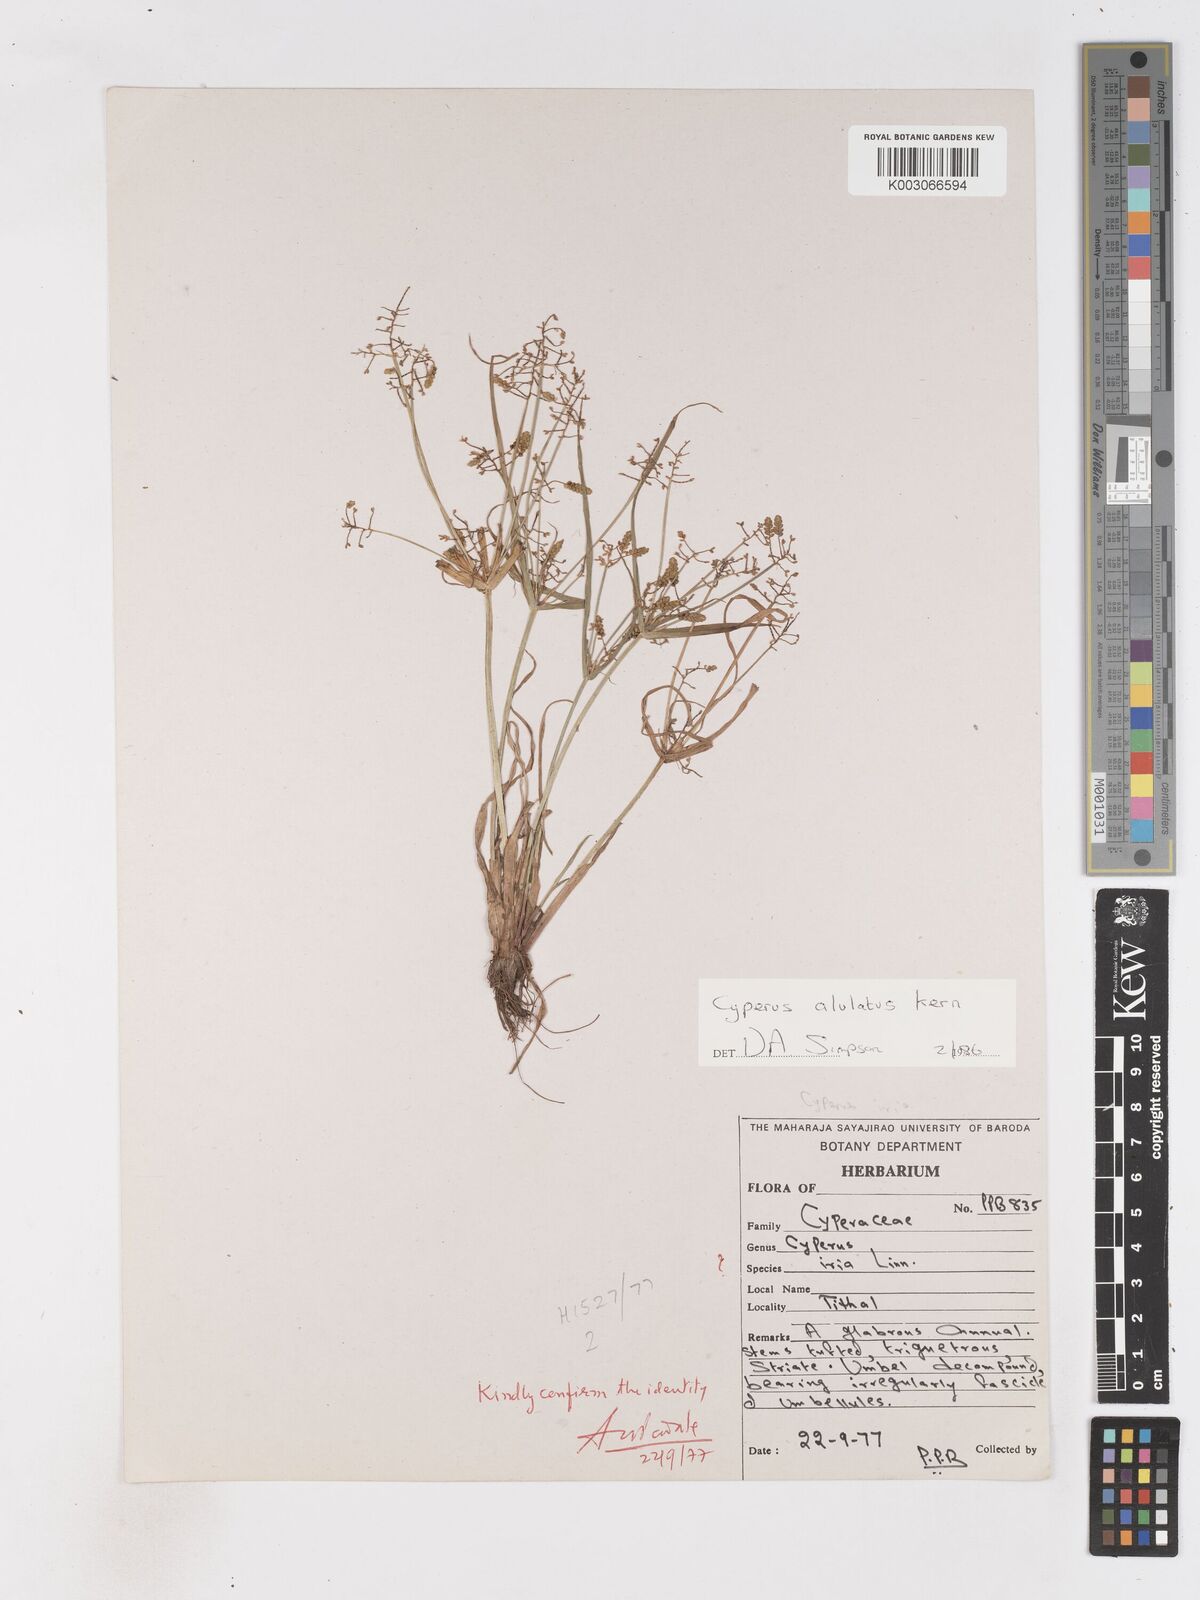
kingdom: Plantae
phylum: Tracheophyta
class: Liliopsida
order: Poales
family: Cyperaceae
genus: Cyperus
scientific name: Cyperus alulatus
